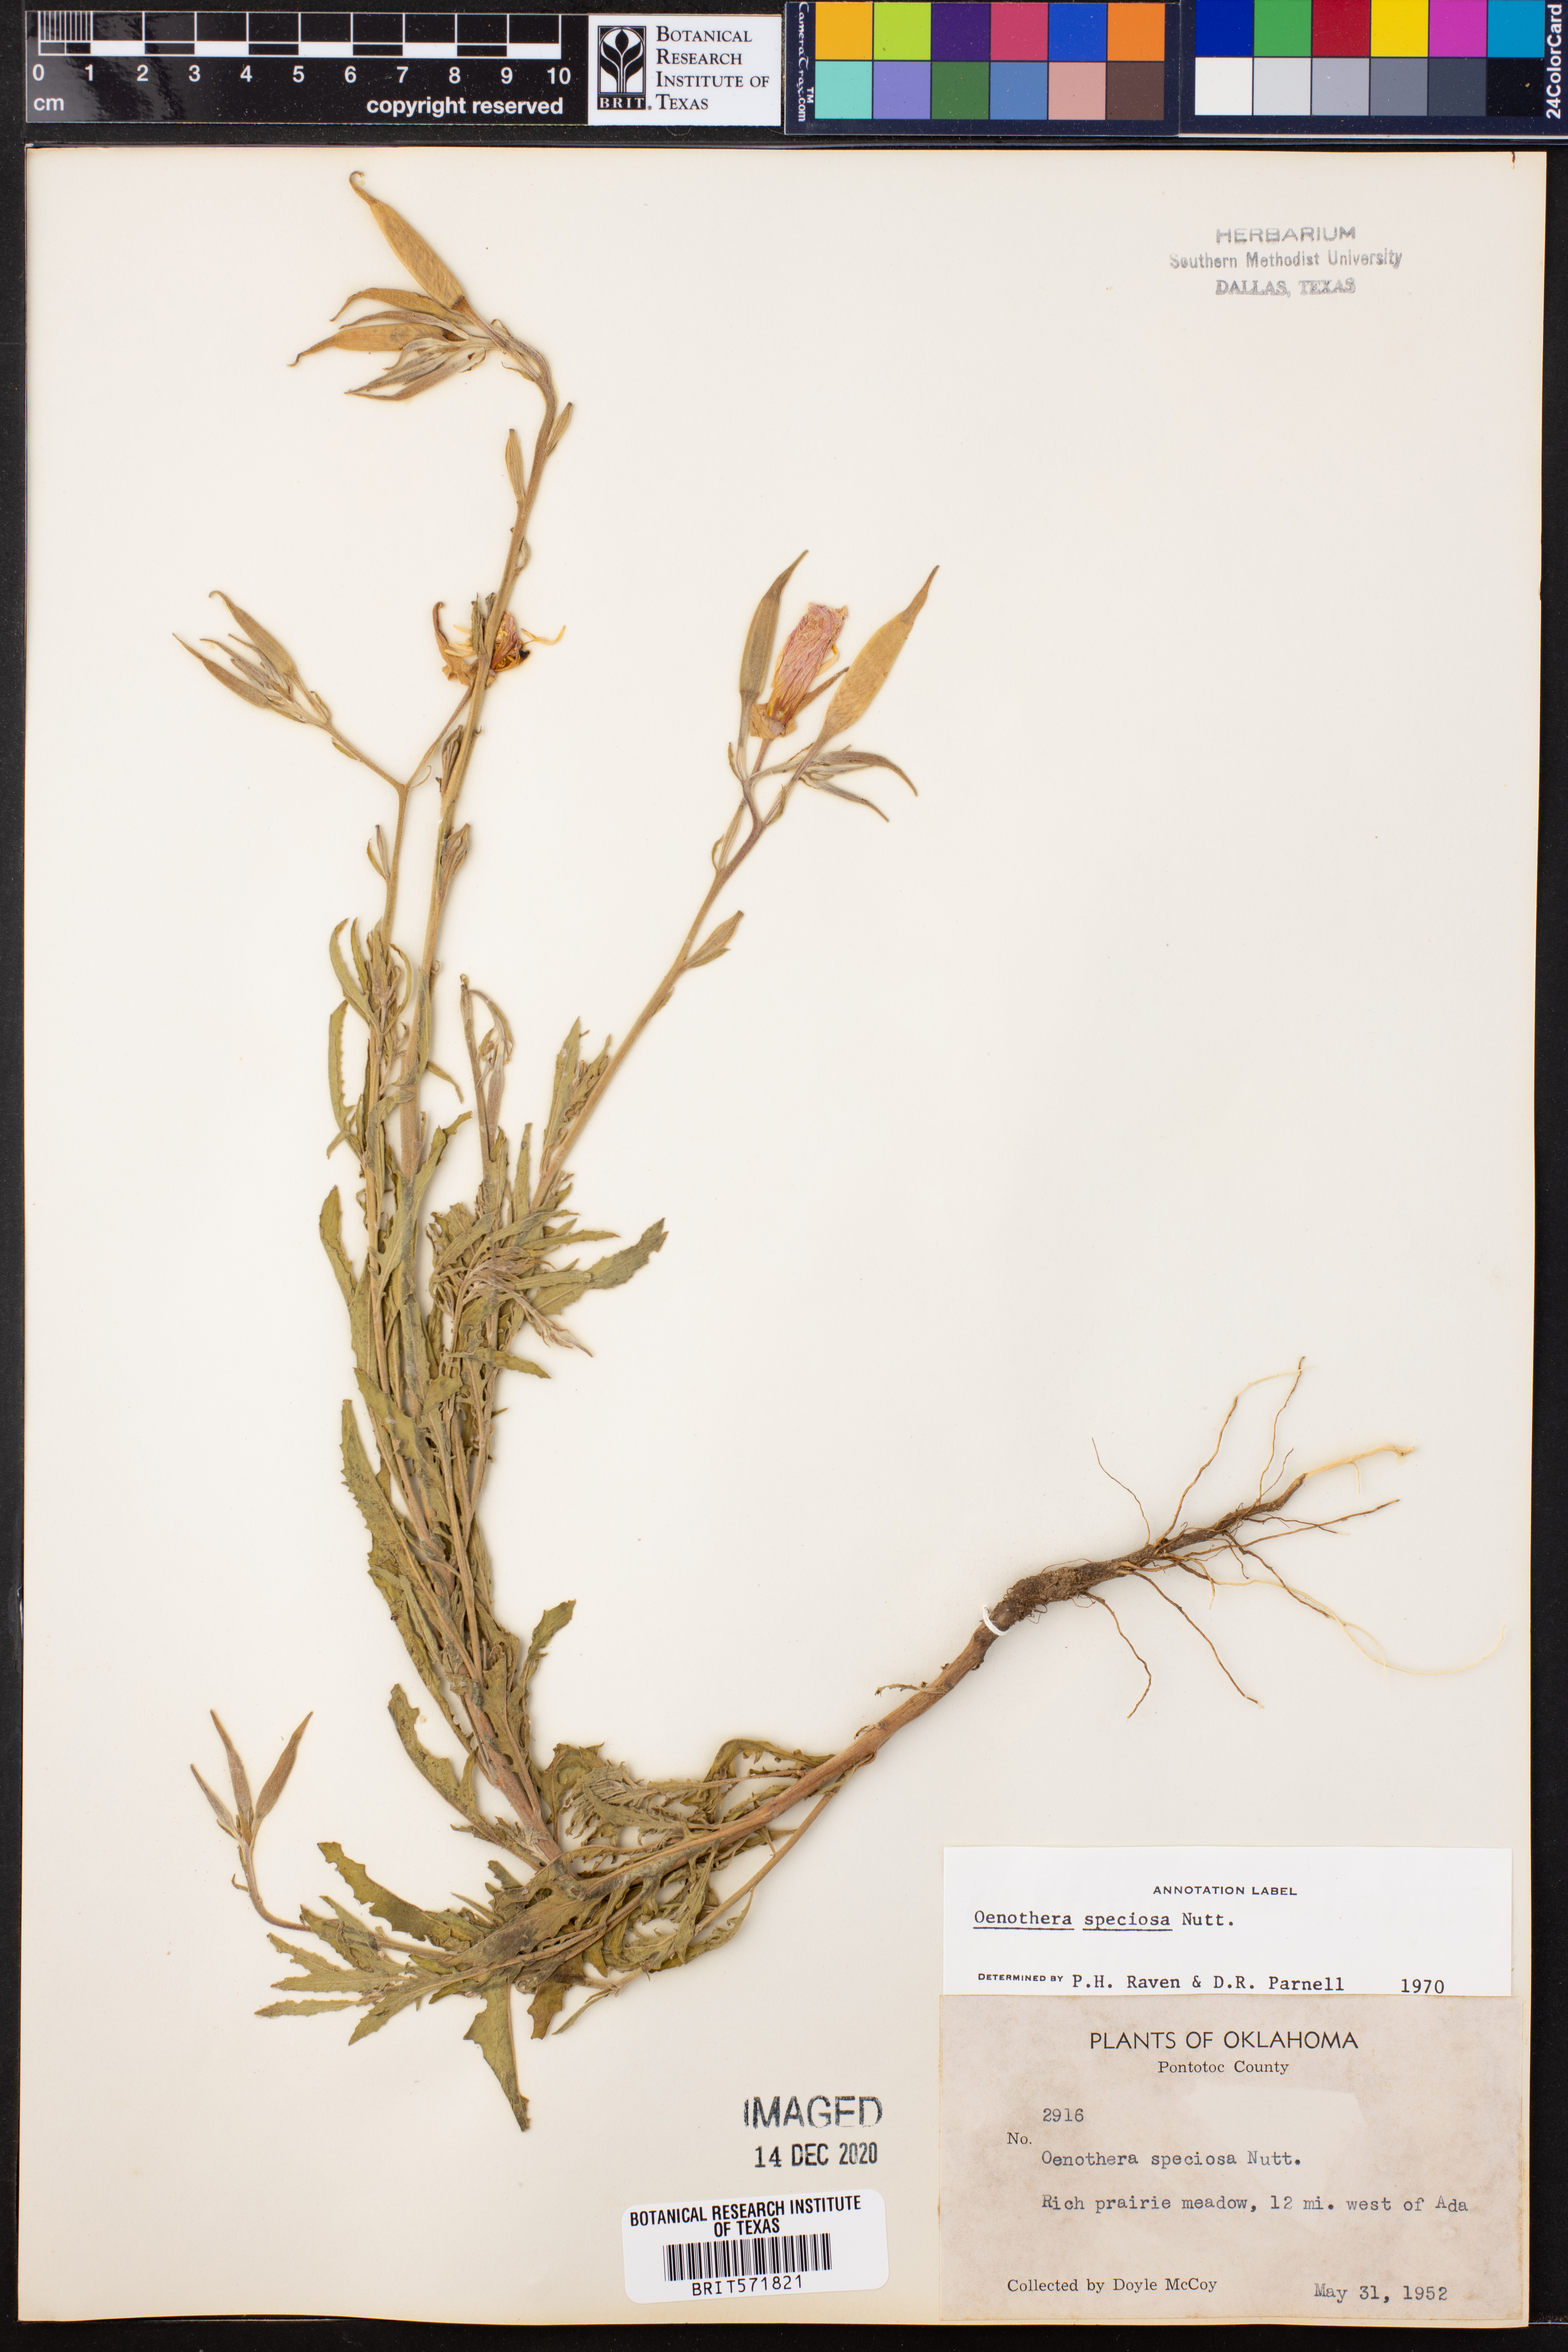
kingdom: Plantae
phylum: Tracheophyta
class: Magnoliopsida
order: Myrtales
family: Onagraceae
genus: Oenothera
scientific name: Oenothera speciosa
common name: White evening-primrose
